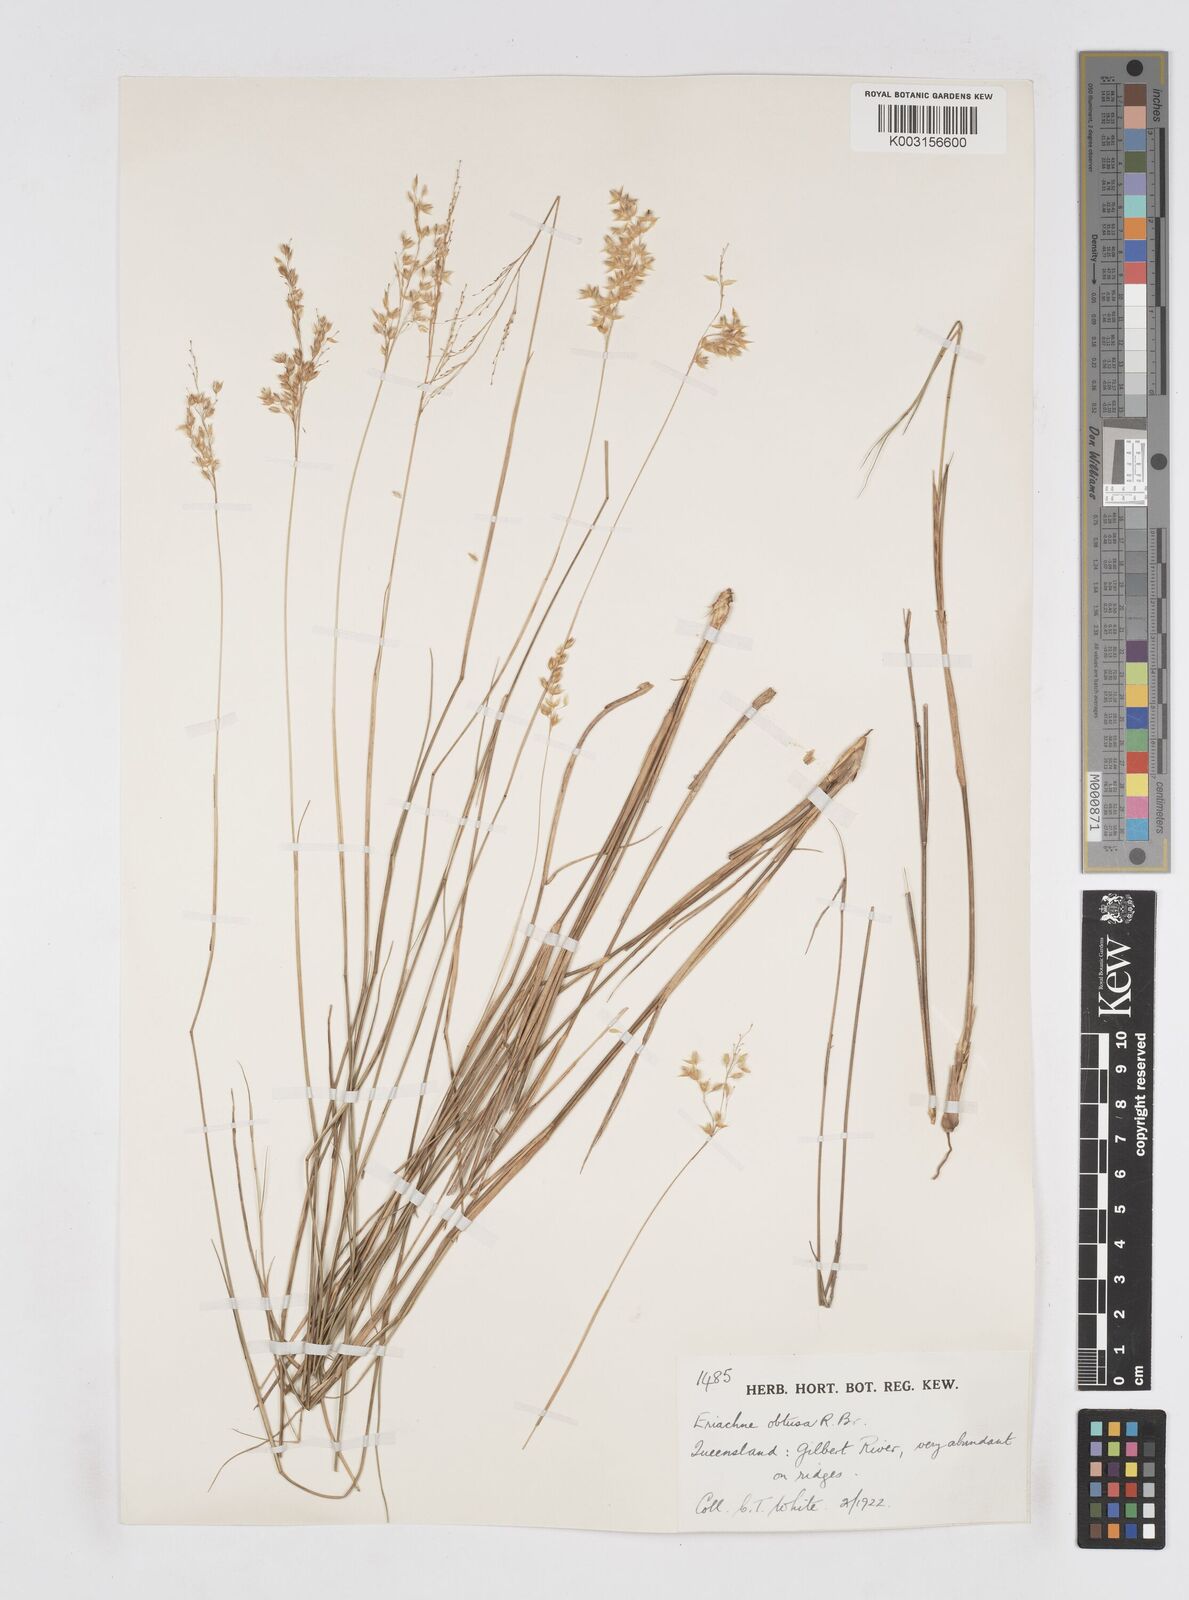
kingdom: Plantae
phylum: Tracheophyta
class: Liliopsida
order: Poales
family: Poaceae
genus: Eriachne
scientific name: Eriachne obtusa
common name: Northern wanderrie grass
